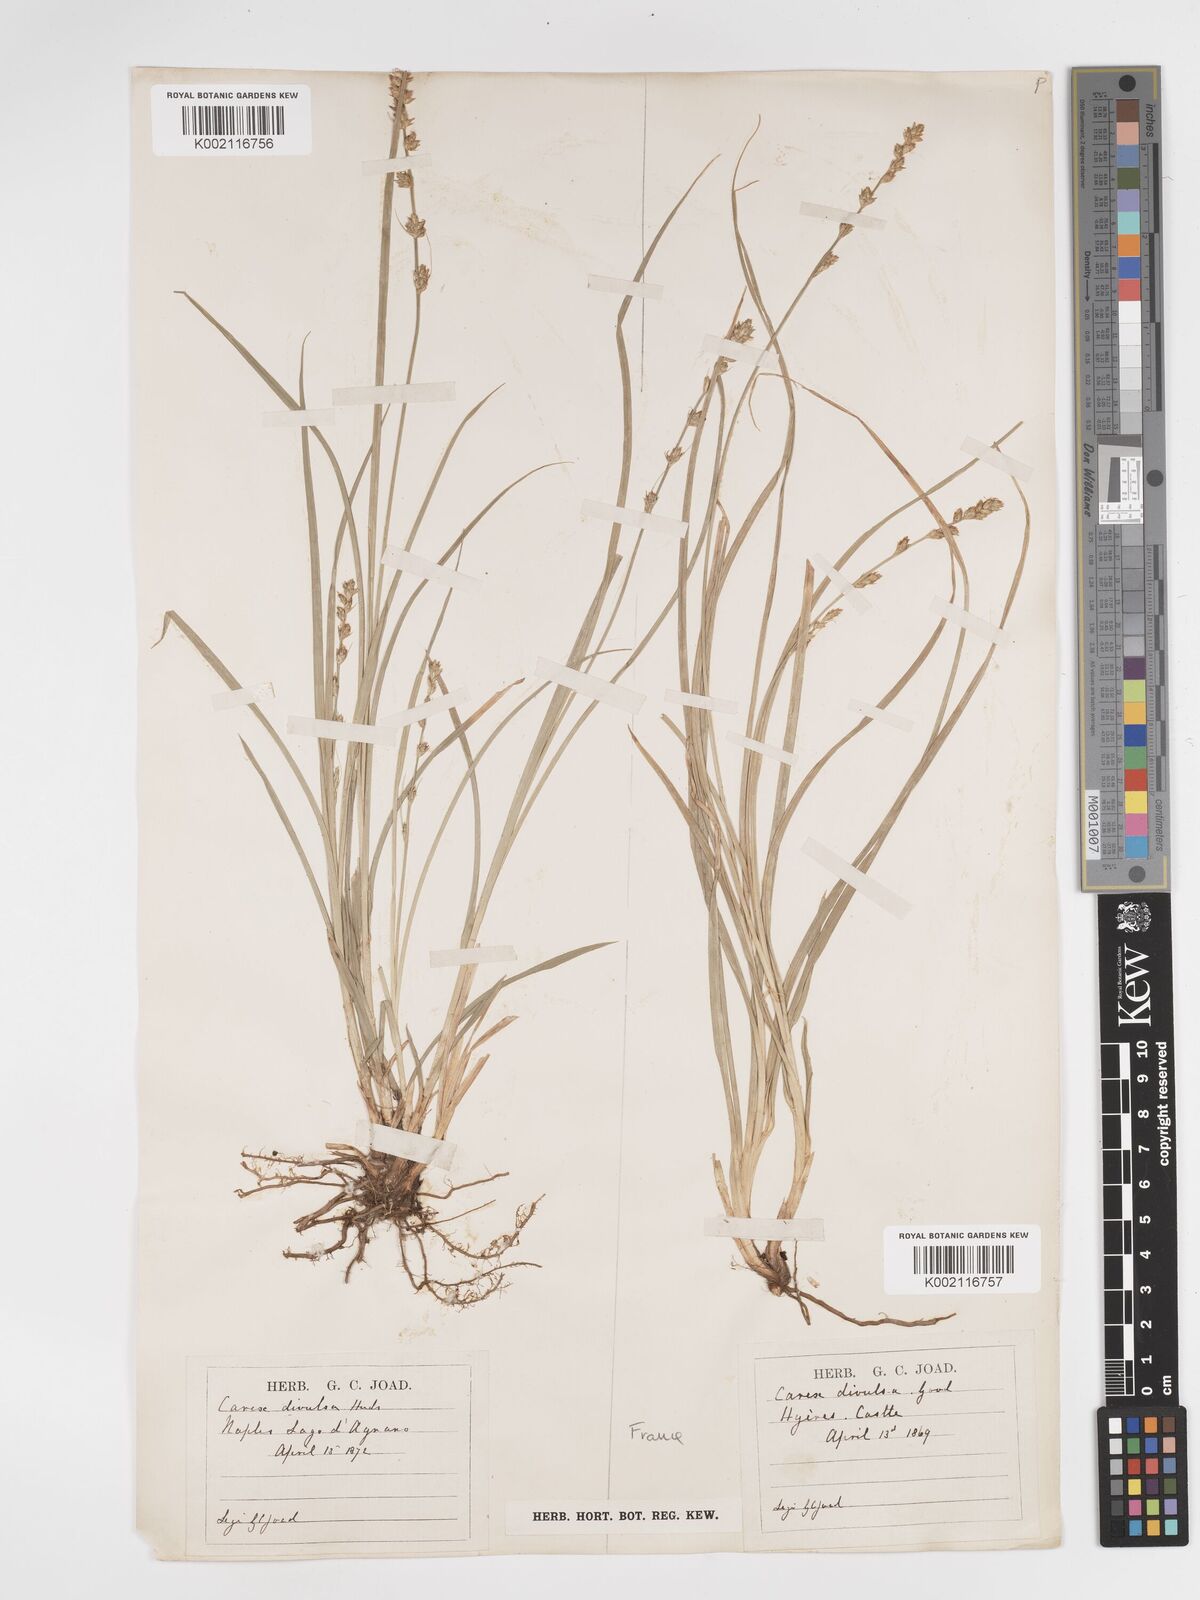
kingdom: Plantae
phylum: Tracheophyta
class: Liliopsida
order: Poales
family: Cyperaceae
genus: Carex
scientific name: Carex divulsa
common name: Grassland sedge
